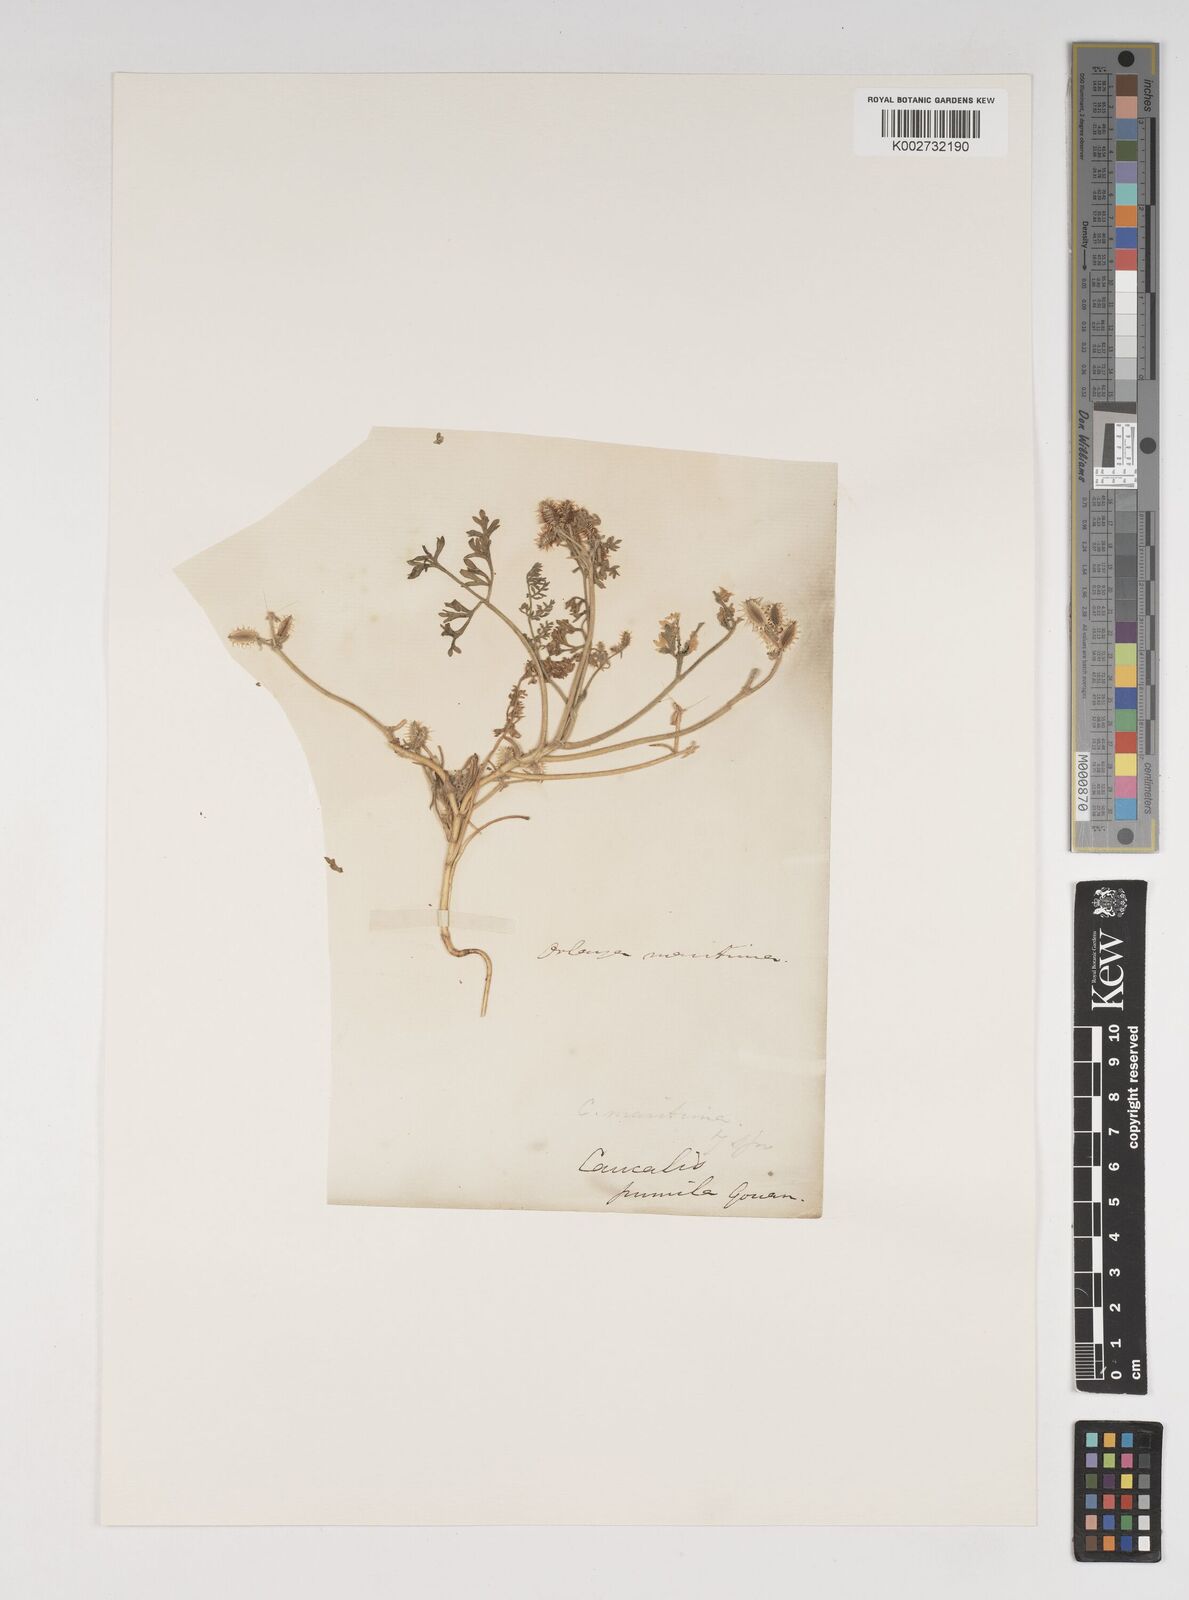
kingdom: Plantae
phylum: Tracheophyta
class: Magnoliopsida
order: Apiales
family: Apiaceae
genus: Daucus
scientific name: Daucus pumilus
